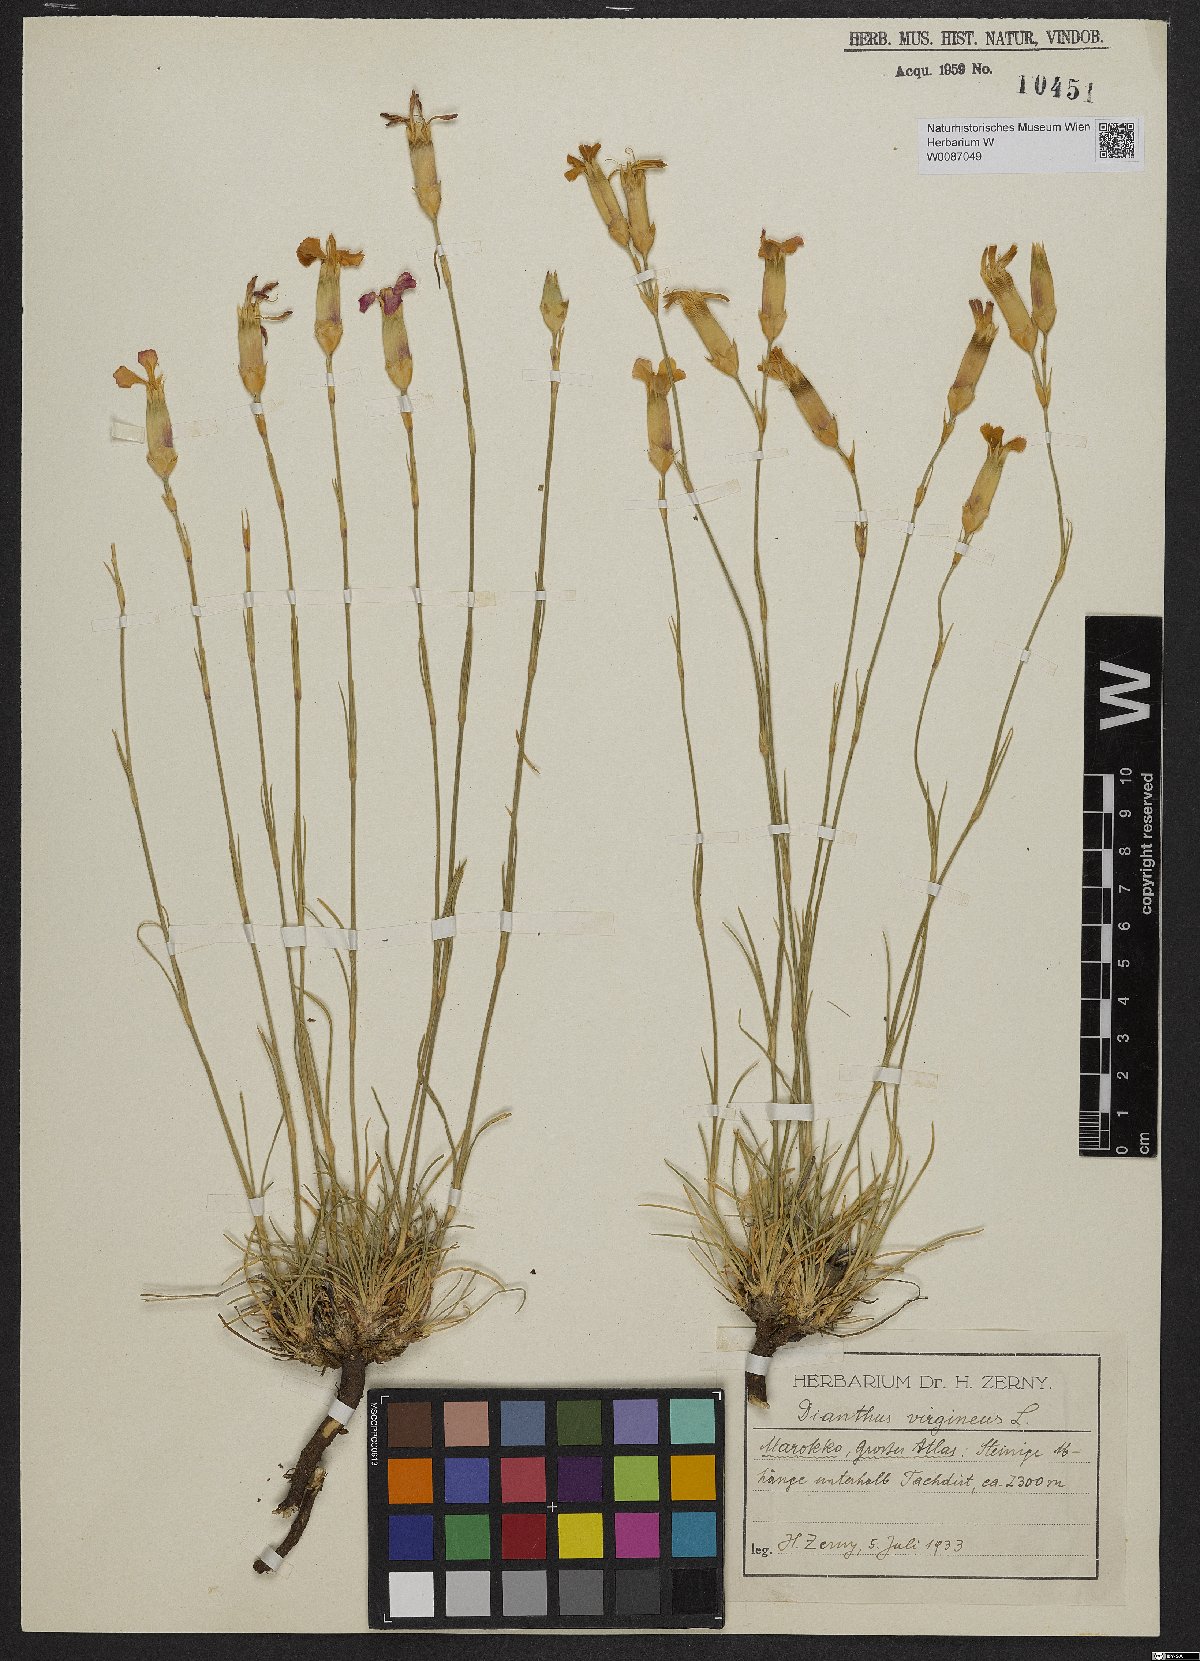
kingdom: Plantae
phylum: Tracheophyta
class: Magnoliopsida
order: Caryophyllales
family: Caryophyllaceae
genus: Dianthus
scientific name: Dianthus virgineus
